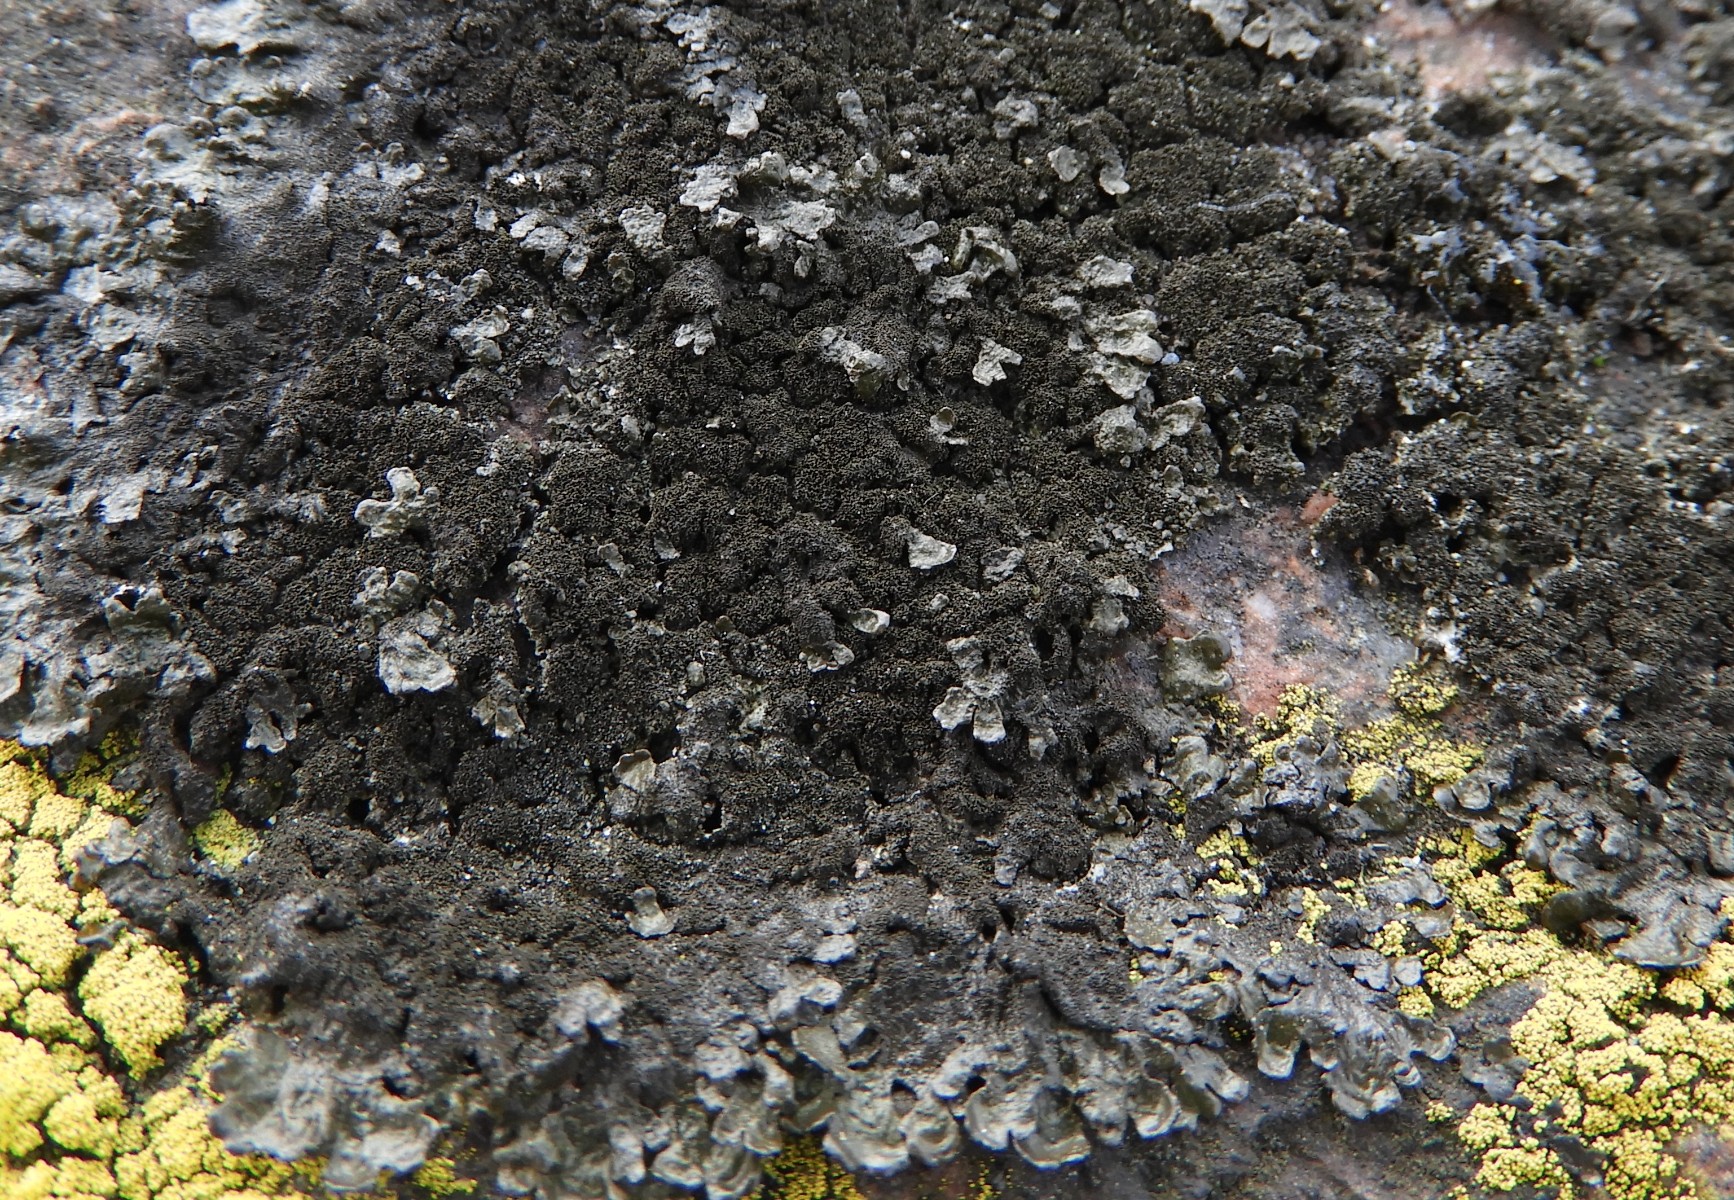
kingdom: Fungi
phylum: Ascomycota
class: Lecanoromycetes
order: Lecanorales
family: Parmeliaceae
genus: Melanelixia
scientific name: Melanelixia fuliginosa
